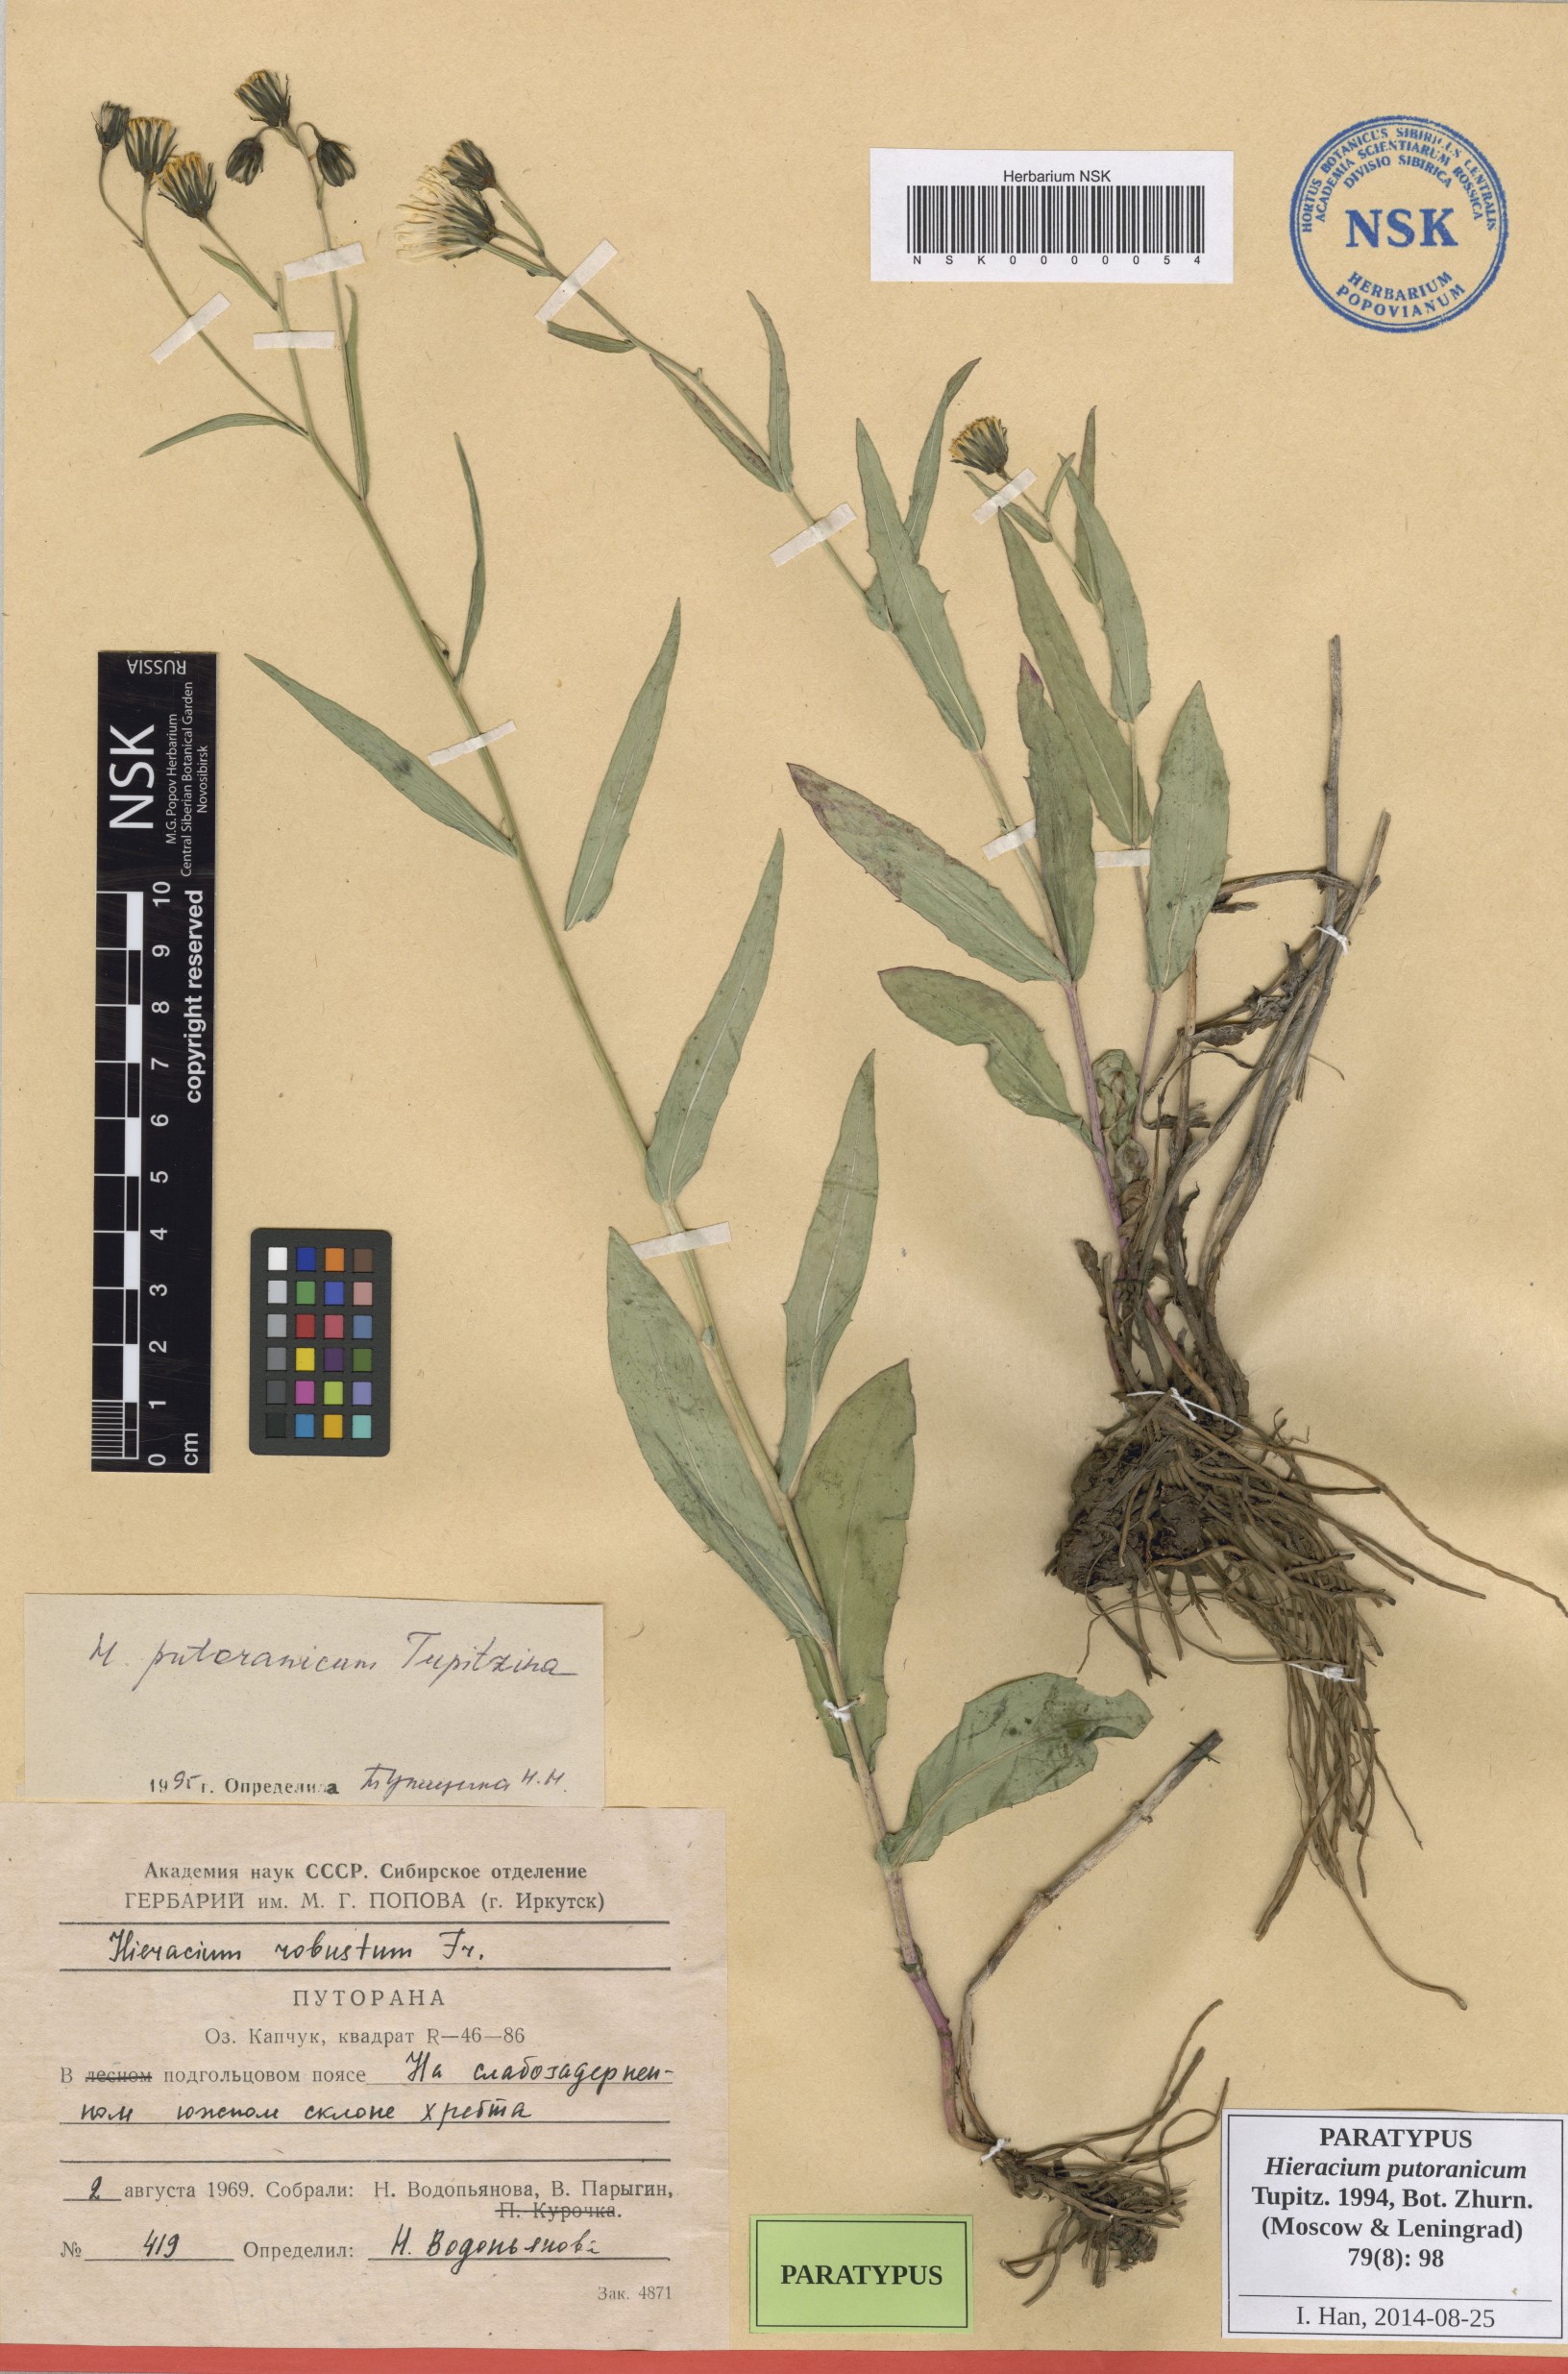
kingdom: Plantae
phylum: Tracheophyta
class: Magnoliopsida
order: Asterales
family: Asteraceae
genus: Hieracium
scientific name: Hieracium putoranicum
